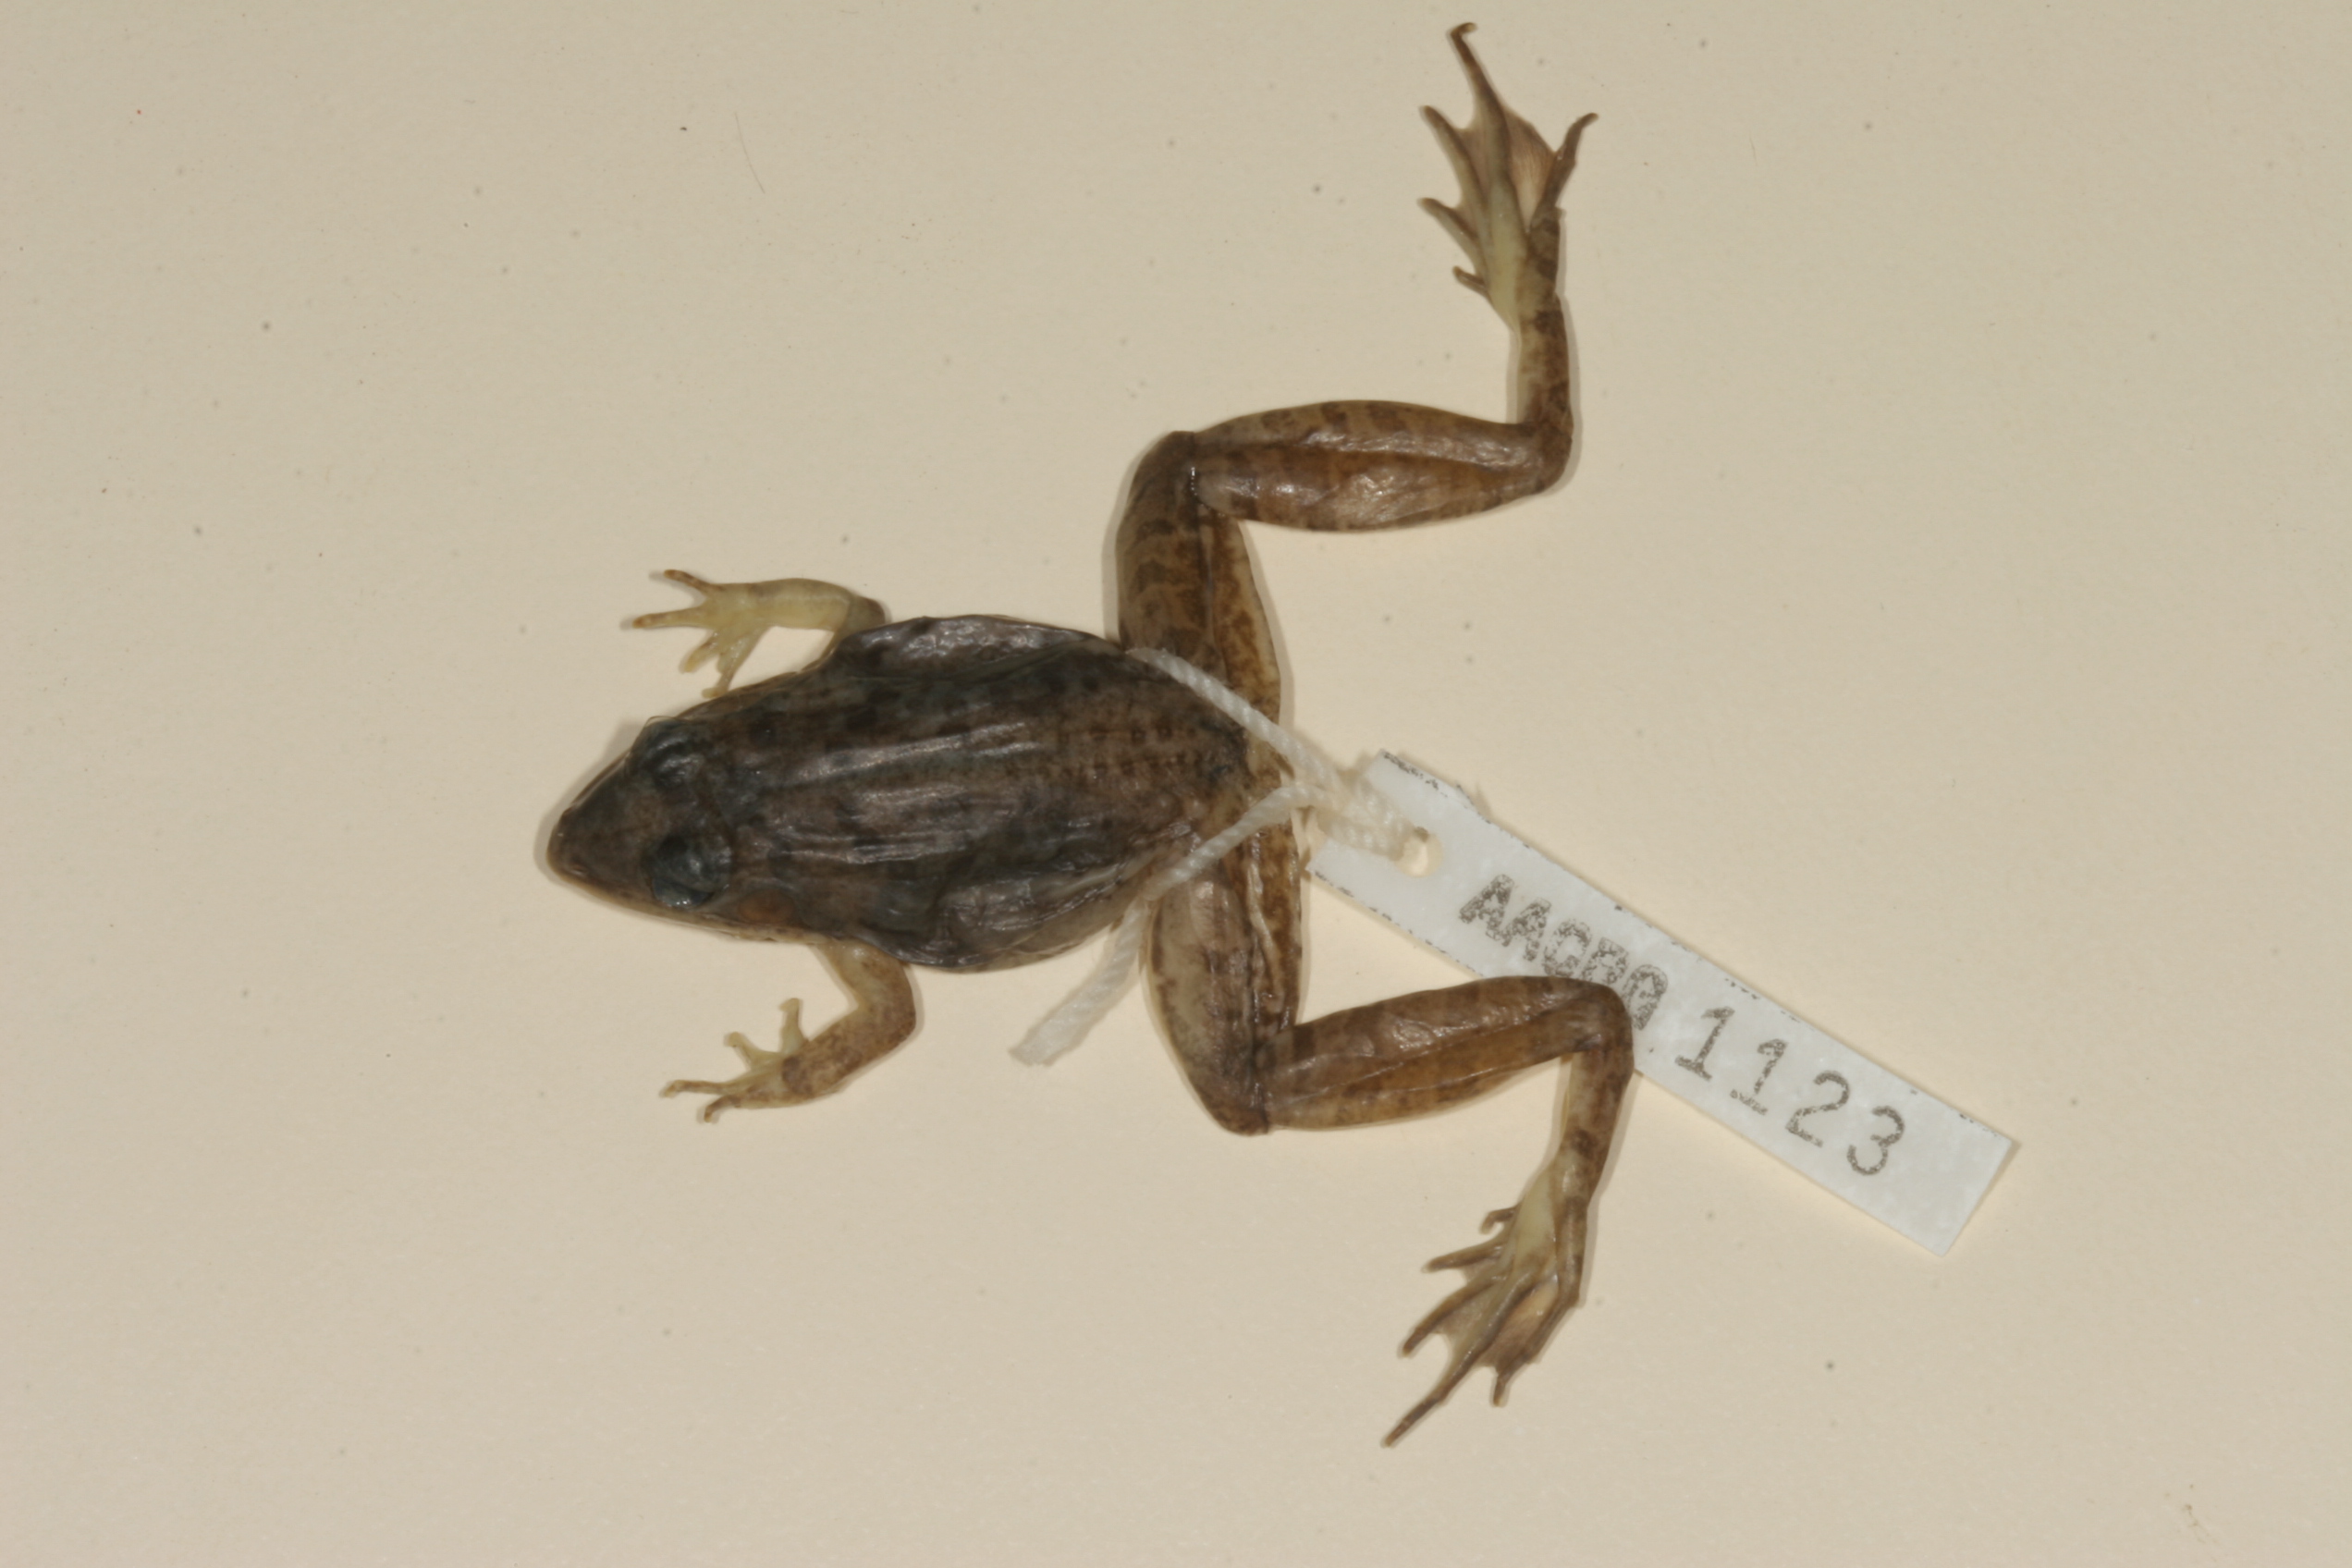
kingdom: Animalia
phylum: Chordata
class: Amphibia
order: Anura
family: Ptychadenidae
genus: Ptychadena
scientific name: Ptychadena mapacha
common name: Mapach ridged frog
